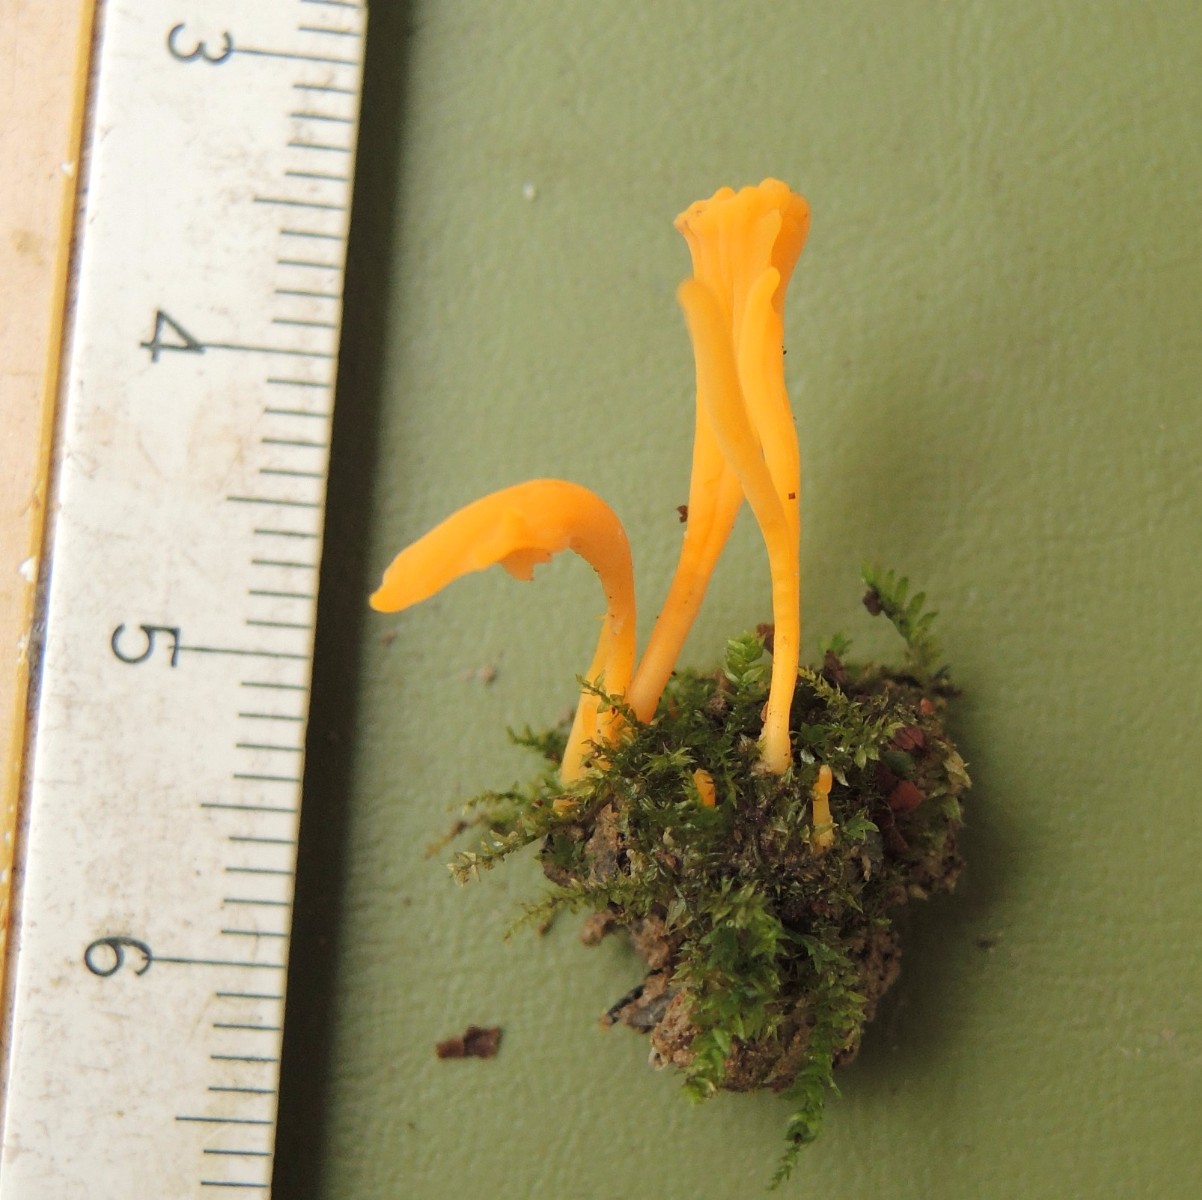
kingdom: Fungi
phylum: Basidiomycota
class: Agaricomycetes
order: Agaricales
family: Clavariaceae
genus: Clavulinopsis
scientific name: Clavulinopsis luteoalba
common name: abrikos-køllesvamp
